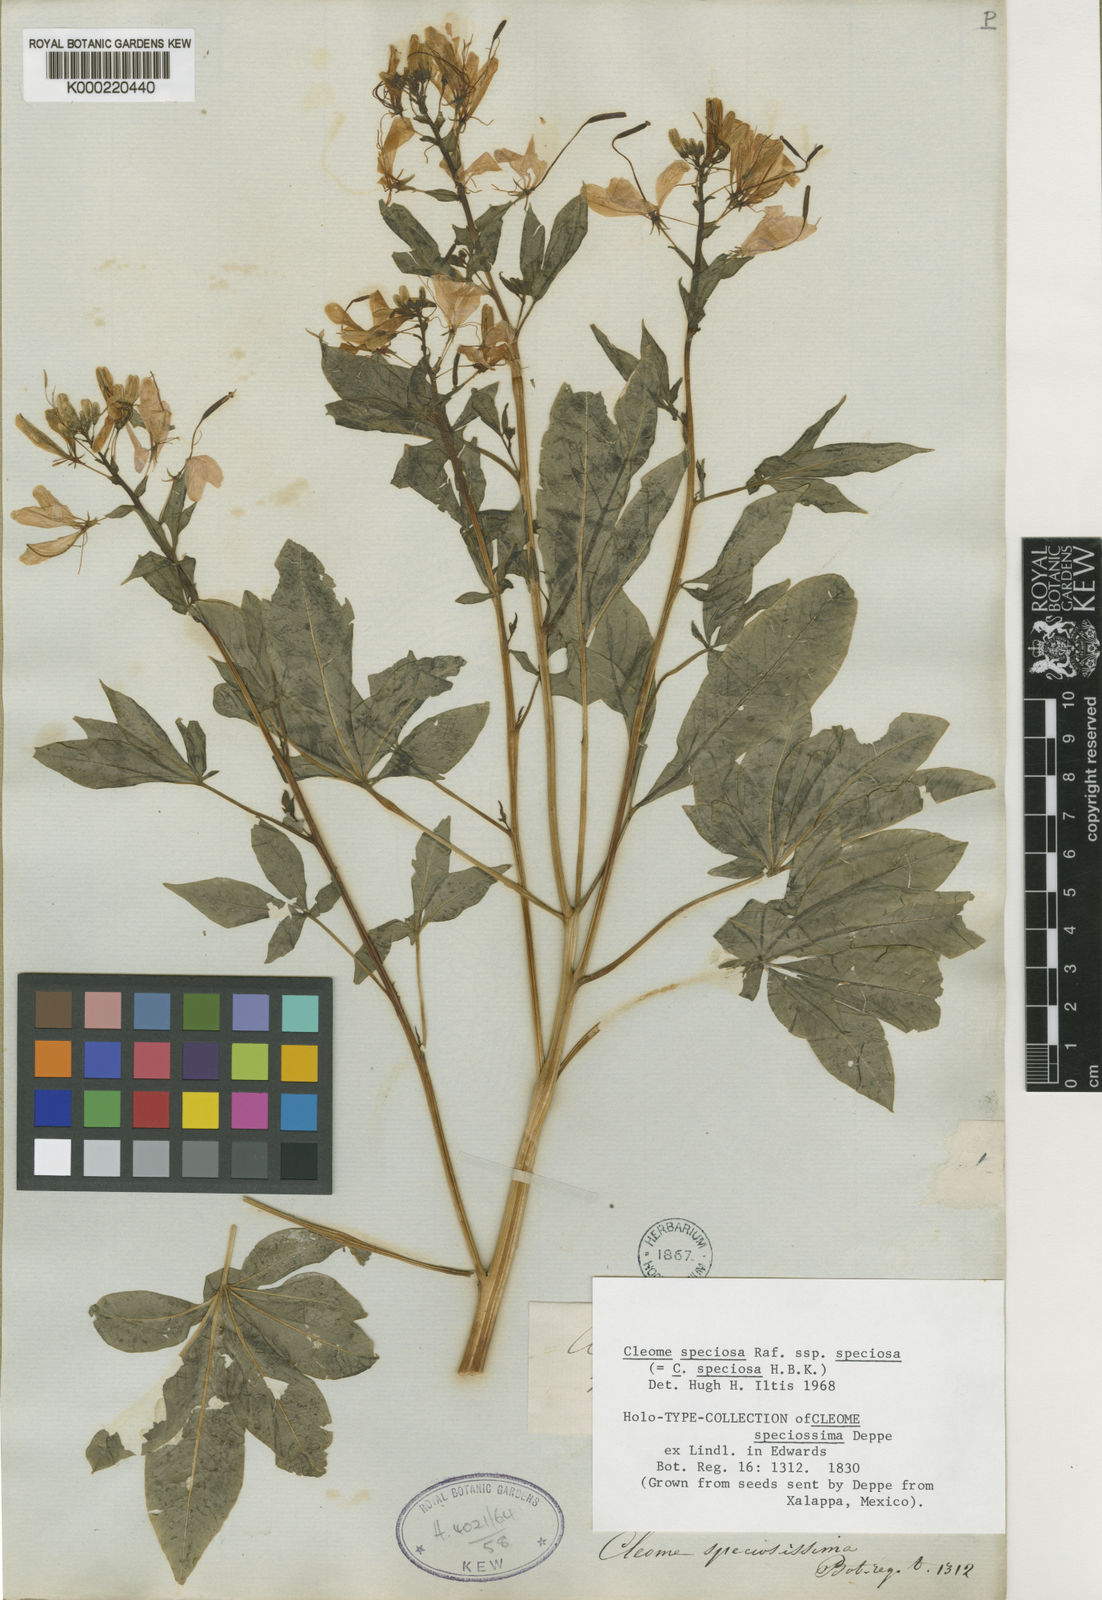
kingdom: Plantae
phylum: Tracheophyta
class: Magnoliopsida
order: Brassicales
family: Cleomaceae
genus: Cleoserrata
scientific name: Cleoserrata speciosa
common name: Volantines preciosos
